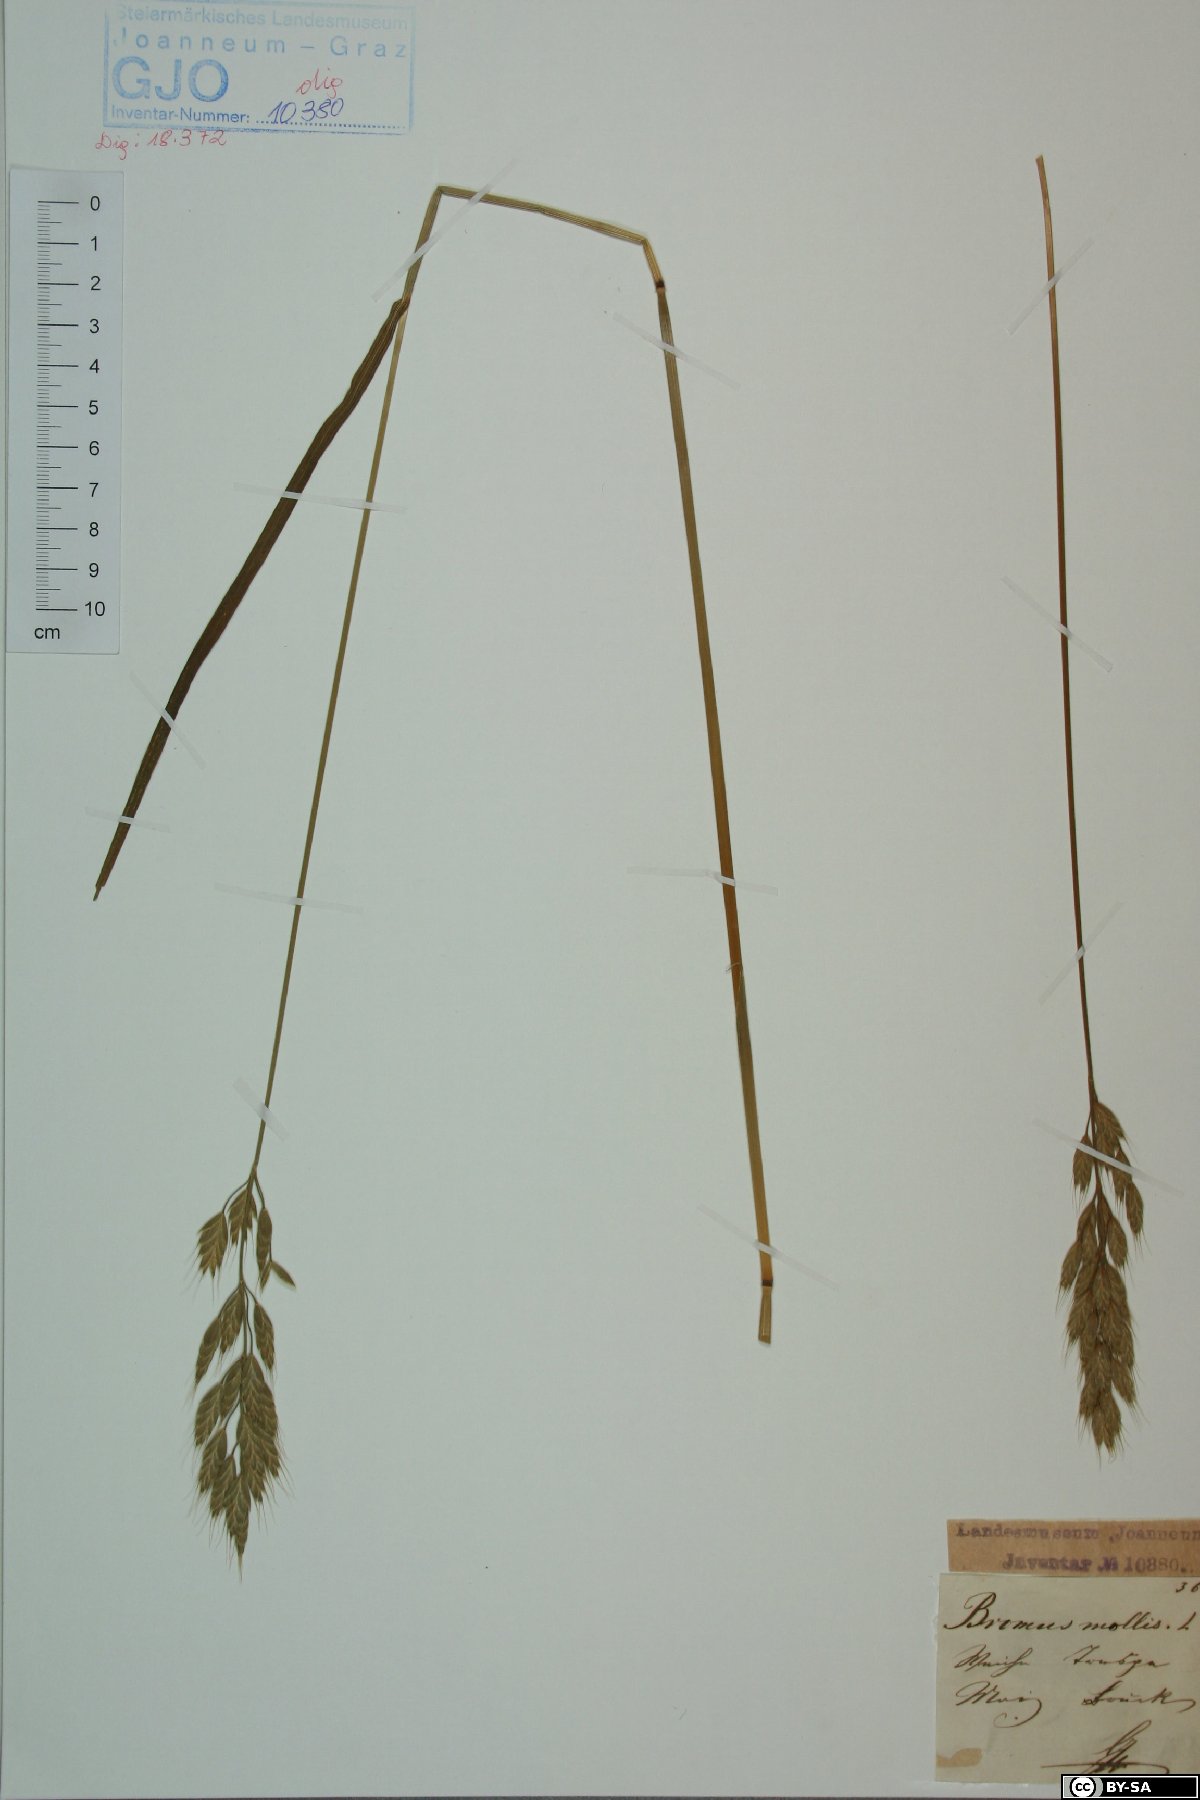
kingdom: Plantae
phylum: Tracheophyta
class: Liliopsida
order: Poales
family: Poaceae
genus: Bromus
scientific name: Bromus hordeaceus
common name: Soft brome
